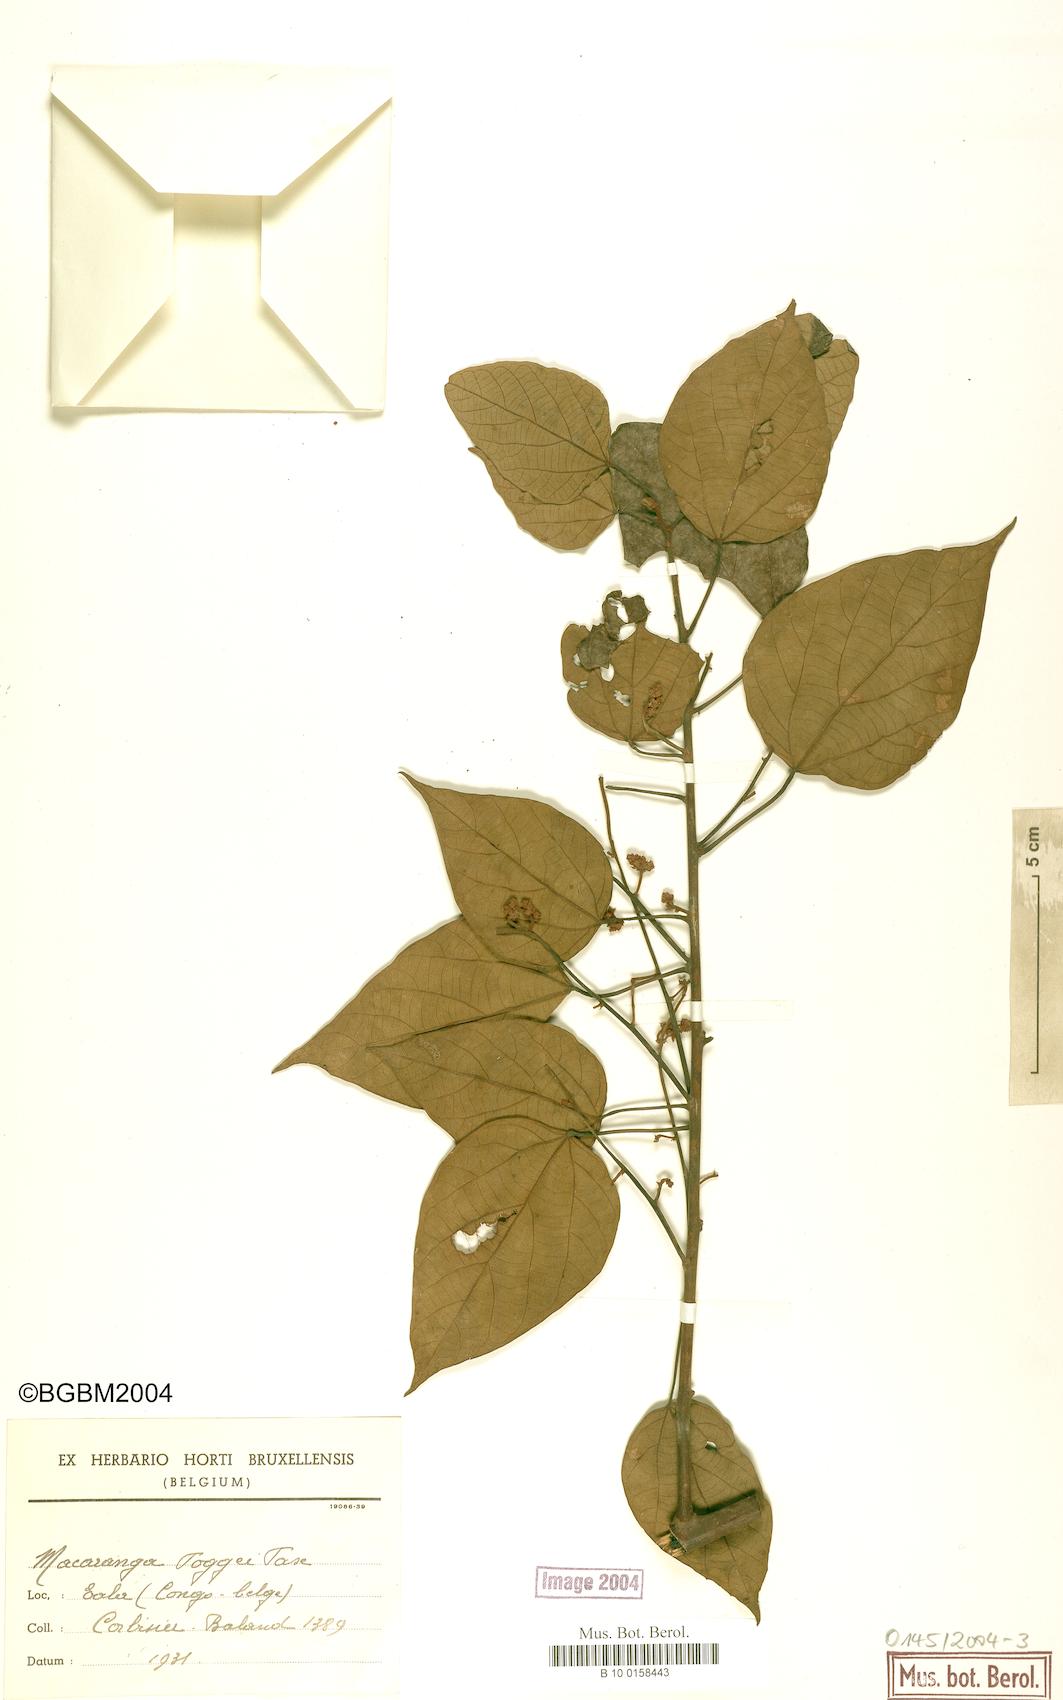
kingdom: Plantae
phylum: Tracheophyta
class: Magnoliopsida
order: Malpighiales
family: Euphorbiaceae
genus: Macaranga
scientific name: Macaranga poggei
